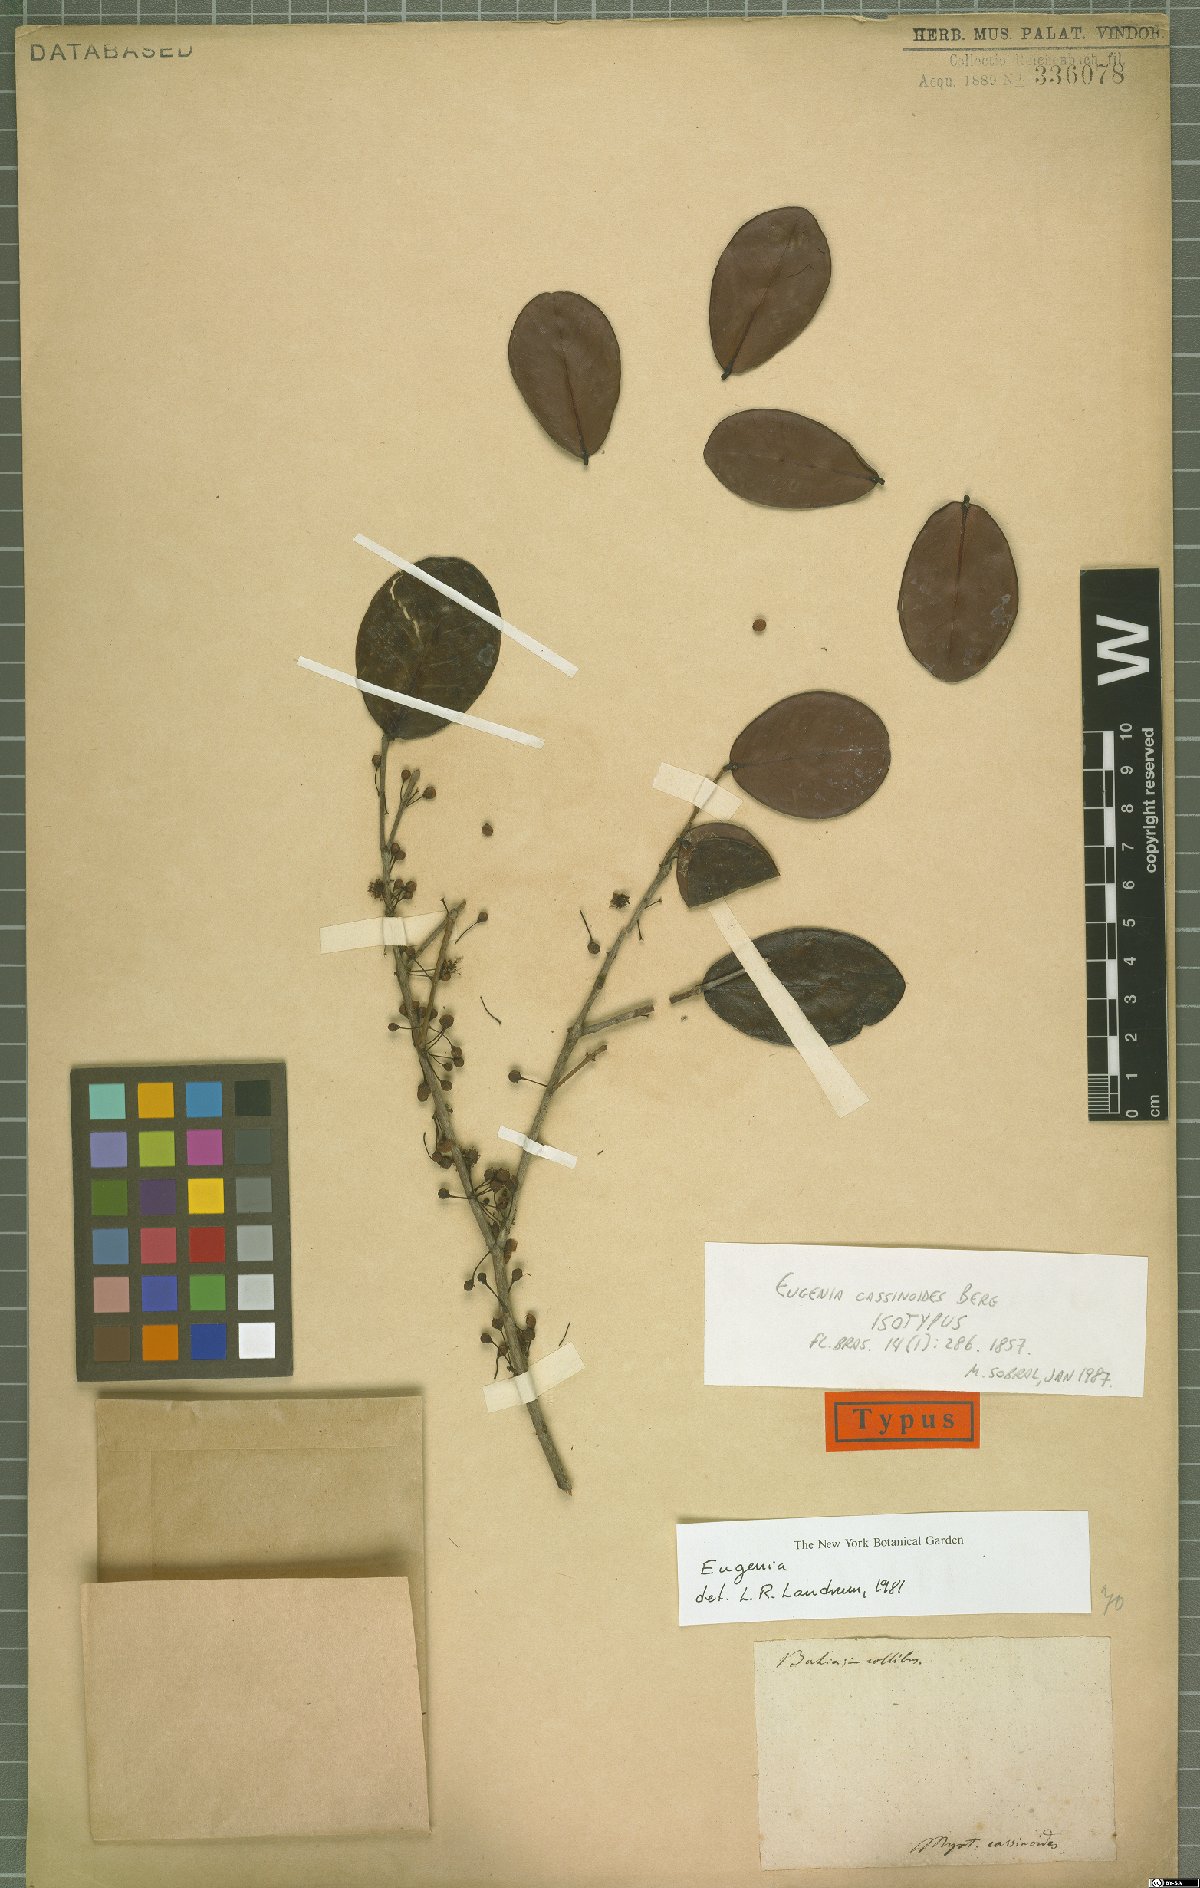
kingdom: Plantae
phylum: Tracheophyta
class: Magnoliopsida
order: Myrtales
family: Myrtaceae
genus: Eugenia
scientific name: Eugenia astringens
